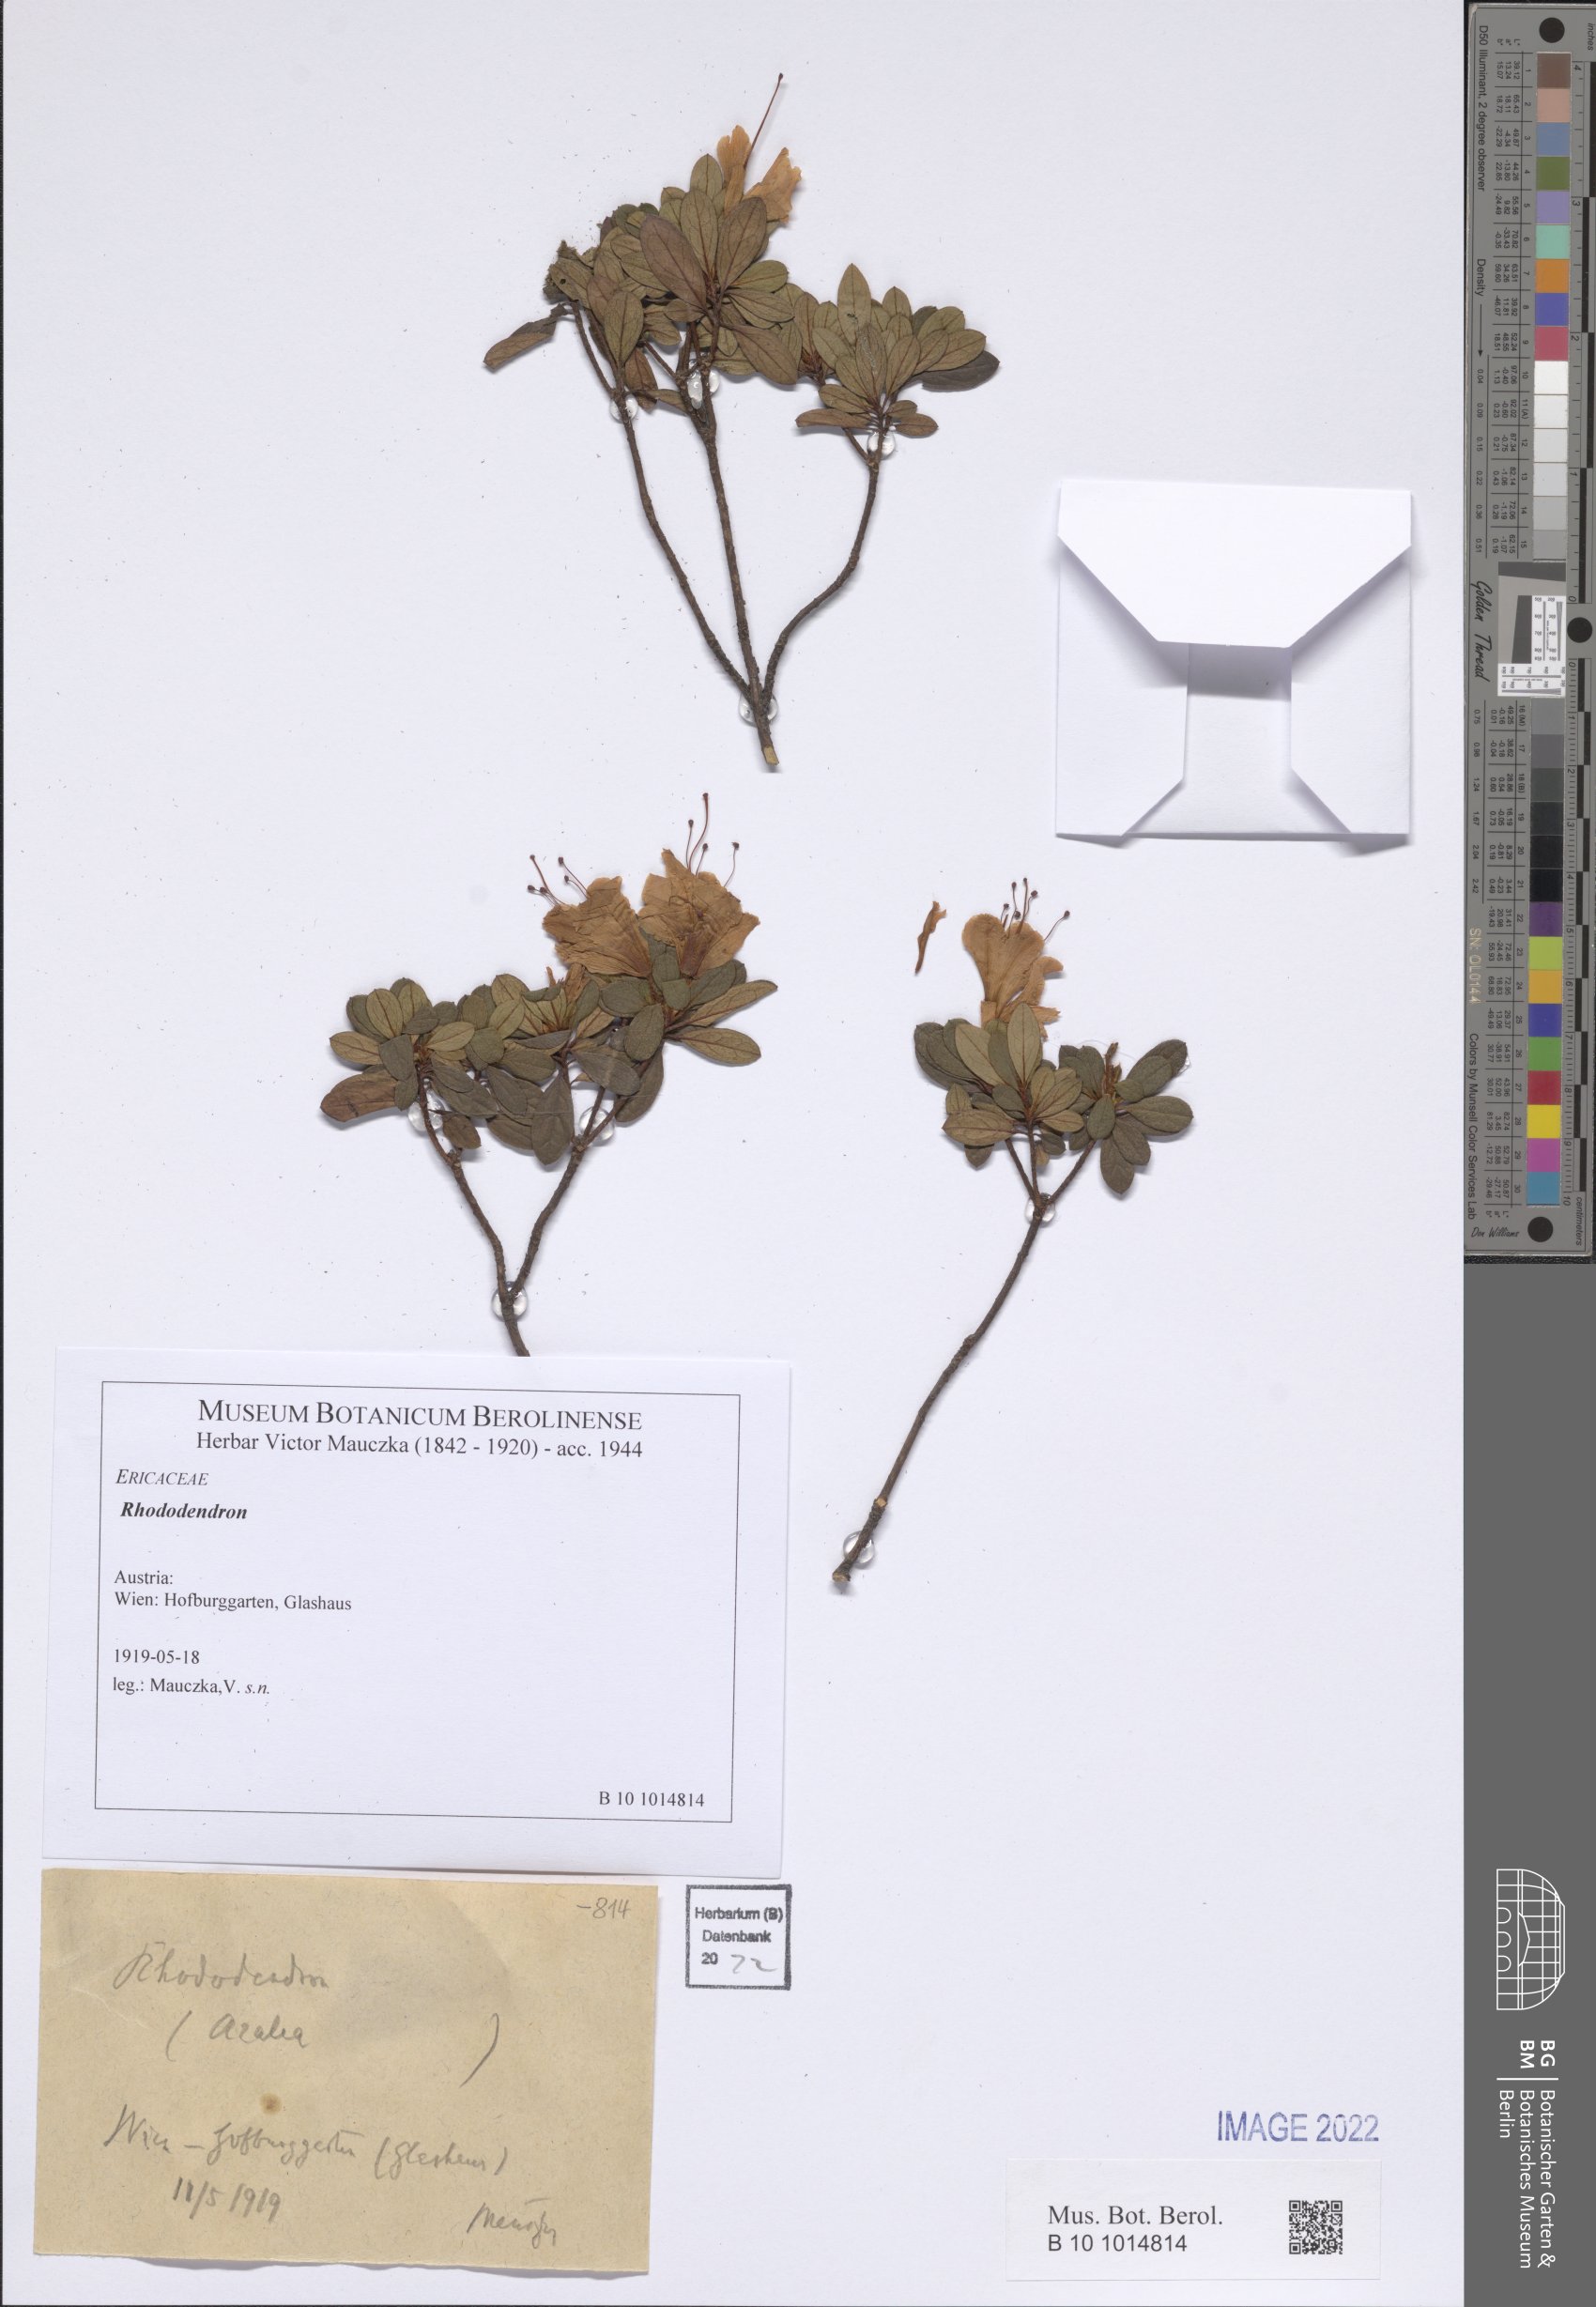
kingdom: Plantae
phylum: Tracheophyta
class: Magnoliopsida
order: Ericales
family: Ericaceae
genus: Rhododendron
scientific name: Rhododendron
